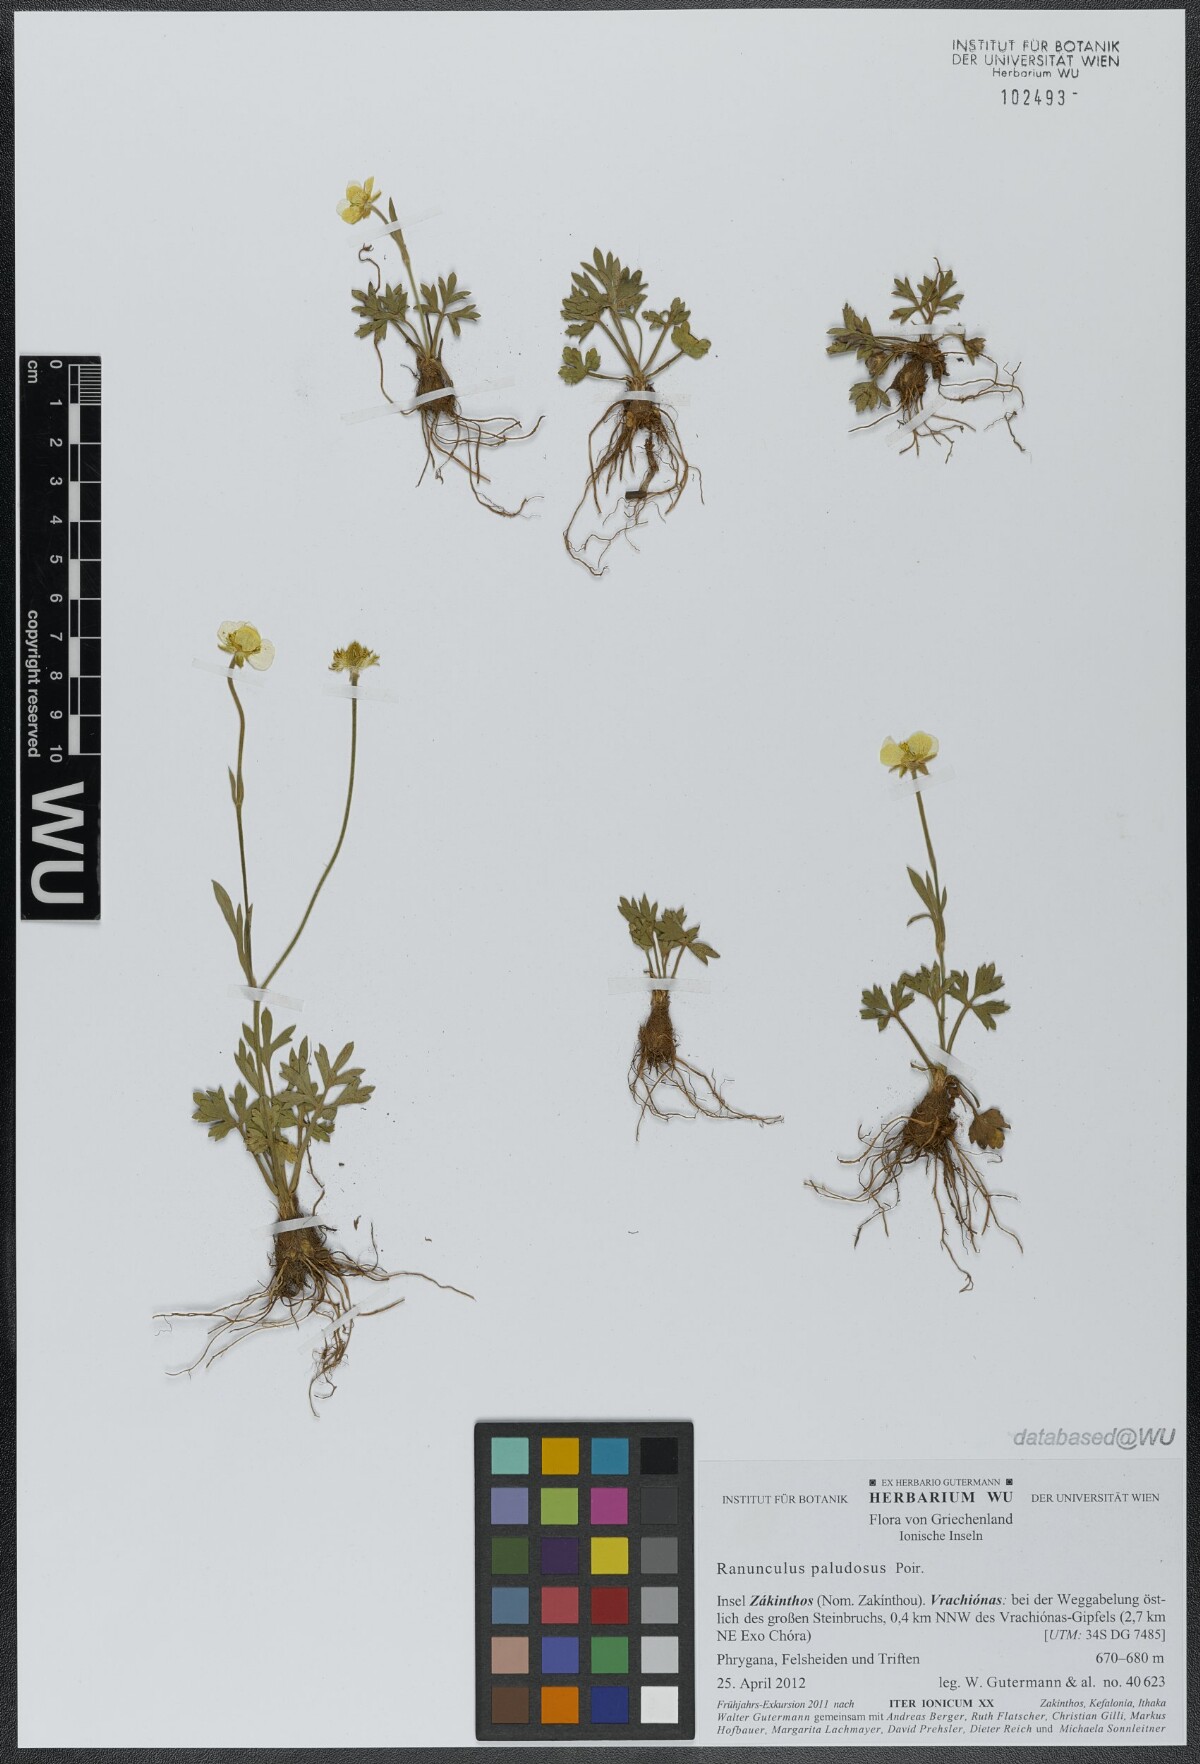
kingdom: Plantae
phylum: Tracheophyta
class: Magnoliopsida
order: Ranunculales
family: Ranunculaceae
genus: Ranunculus
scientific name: Ranunculus paludosus
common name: Jersey buttercup
